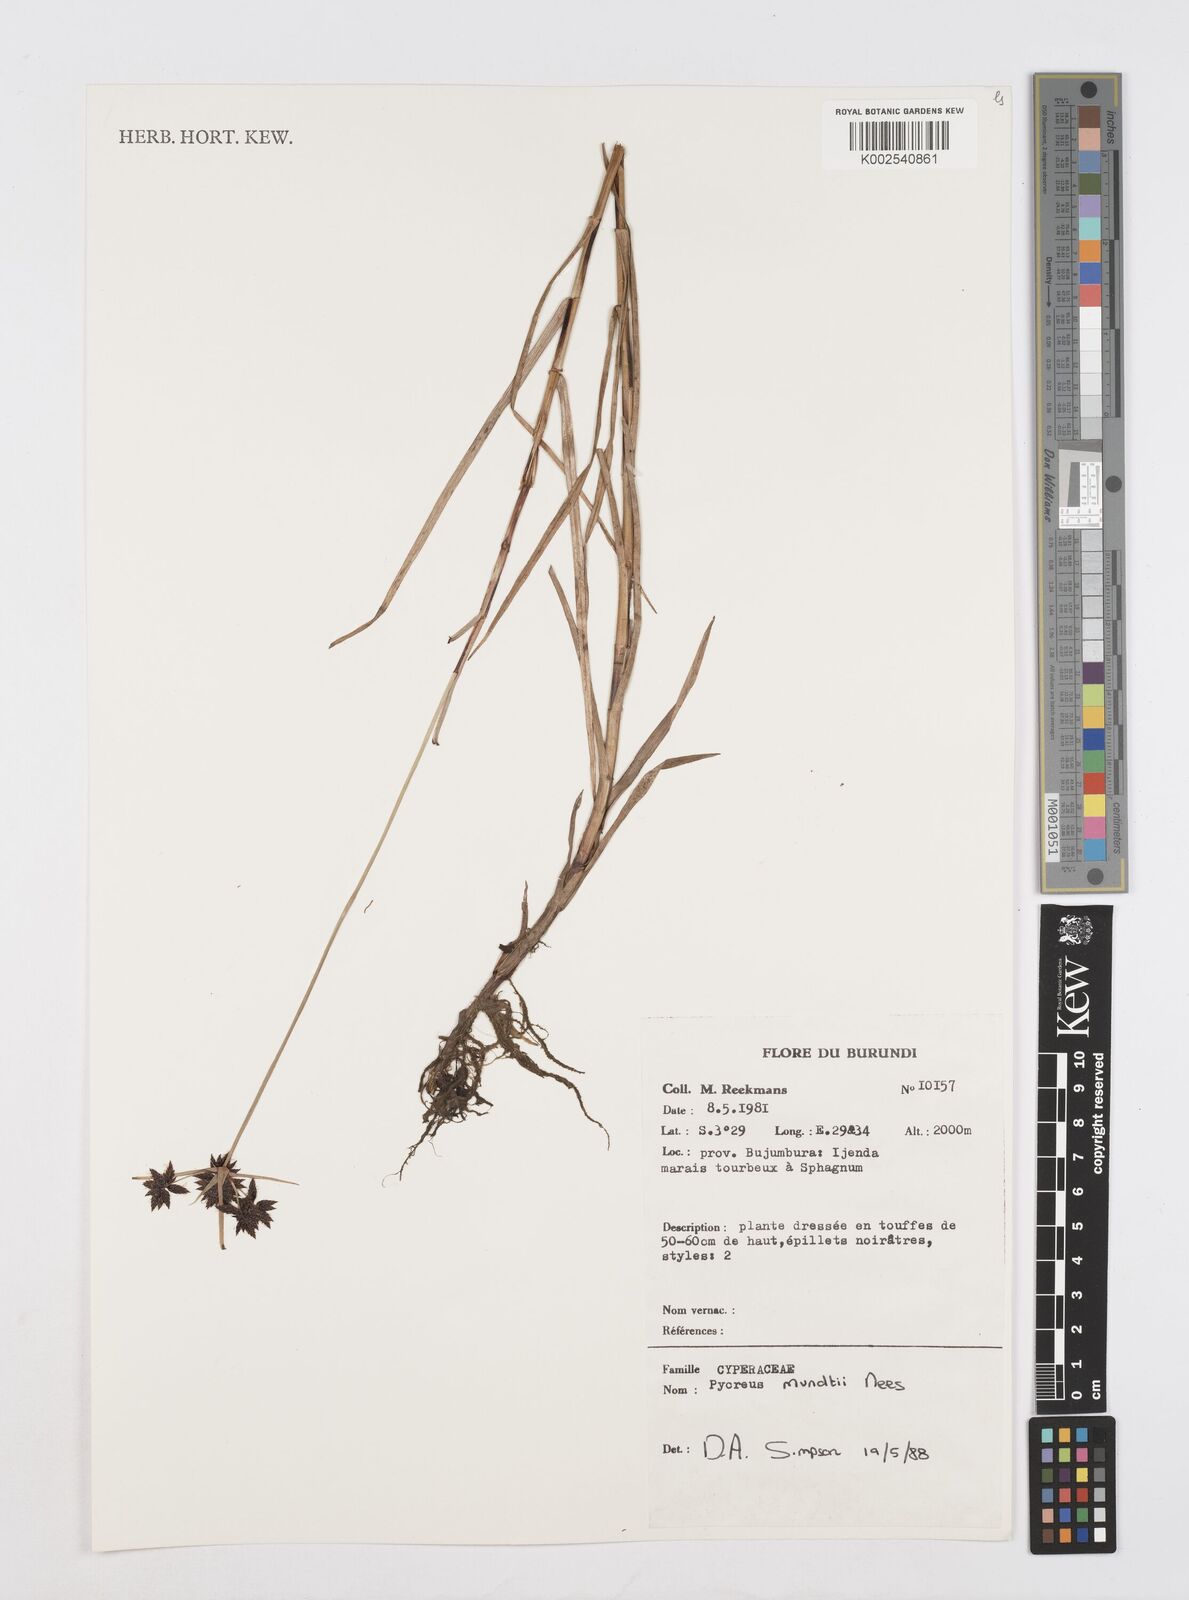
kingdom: Plantae
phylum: Tracheophyta
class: Liliopsida
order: Poales
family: Cyperaceae
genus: Cyperus
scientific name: Cyperus mundii
